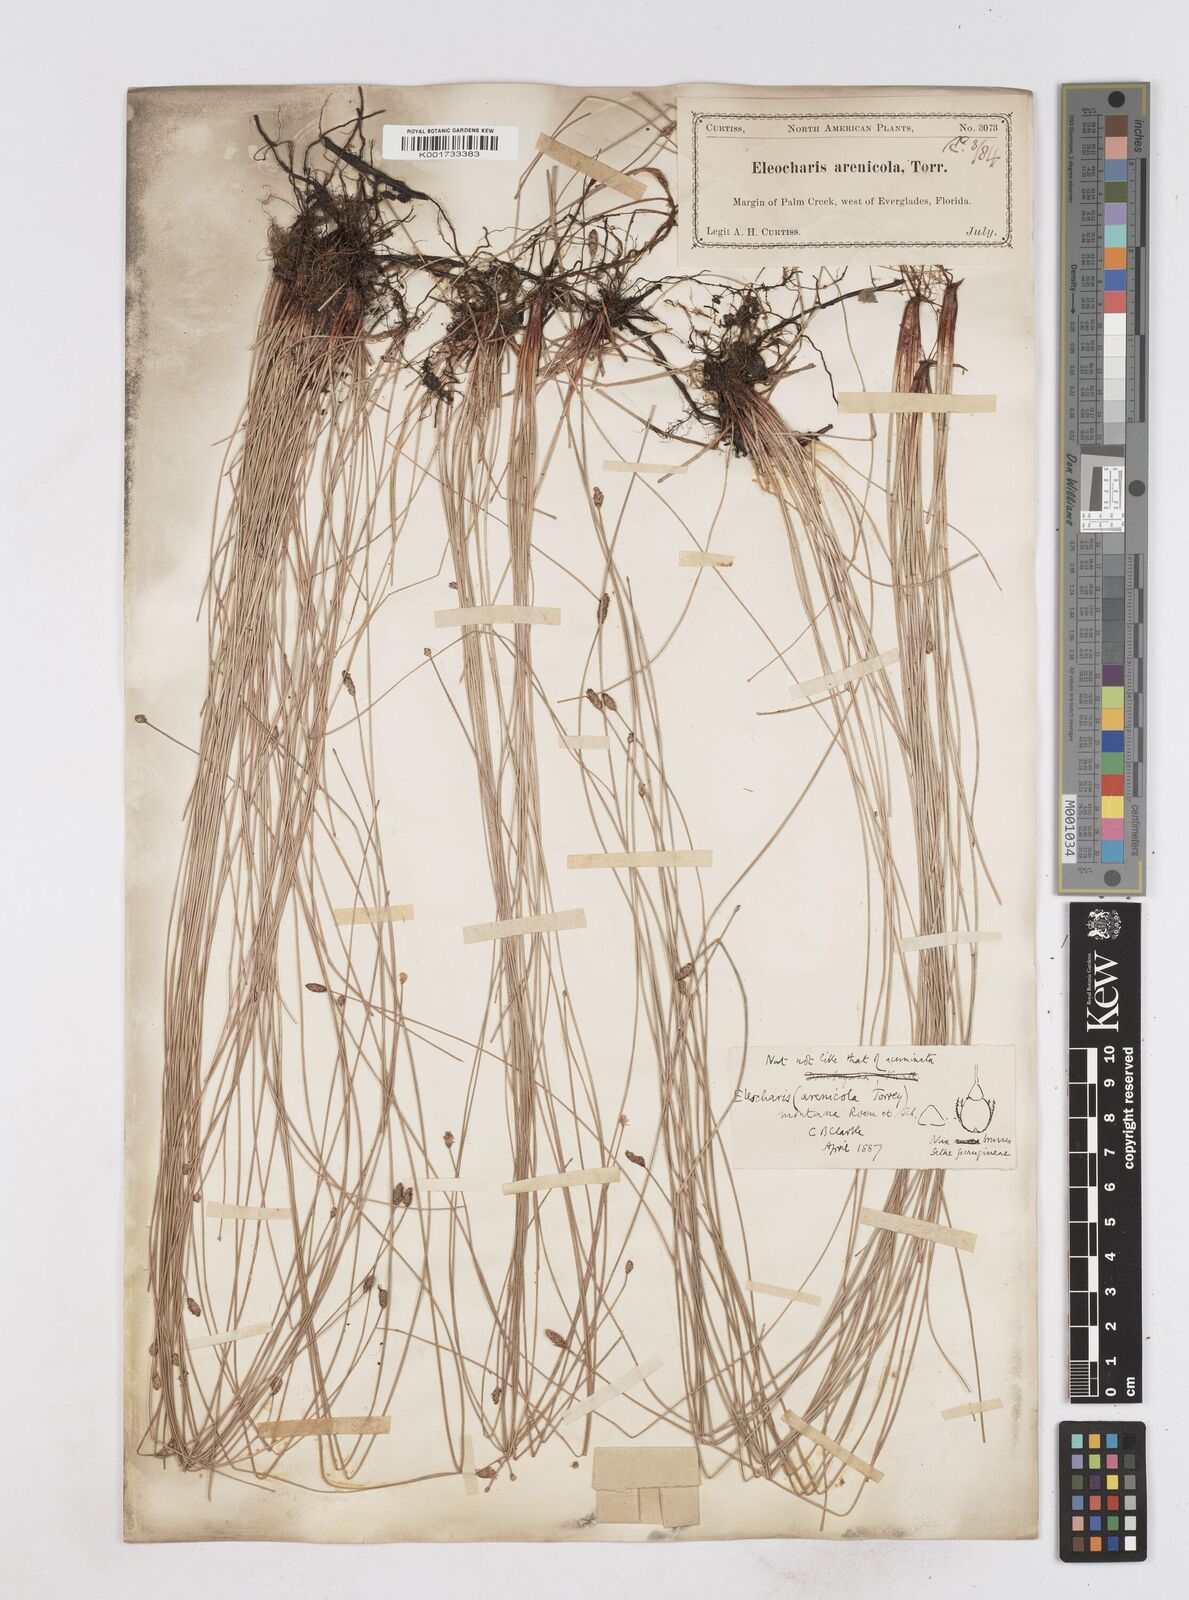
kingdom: Plantae
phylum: Tracheophyta
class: Liliopsida
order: Poales
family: Cyperaceae
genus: Eleocharis
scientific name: Eleocharis montana
